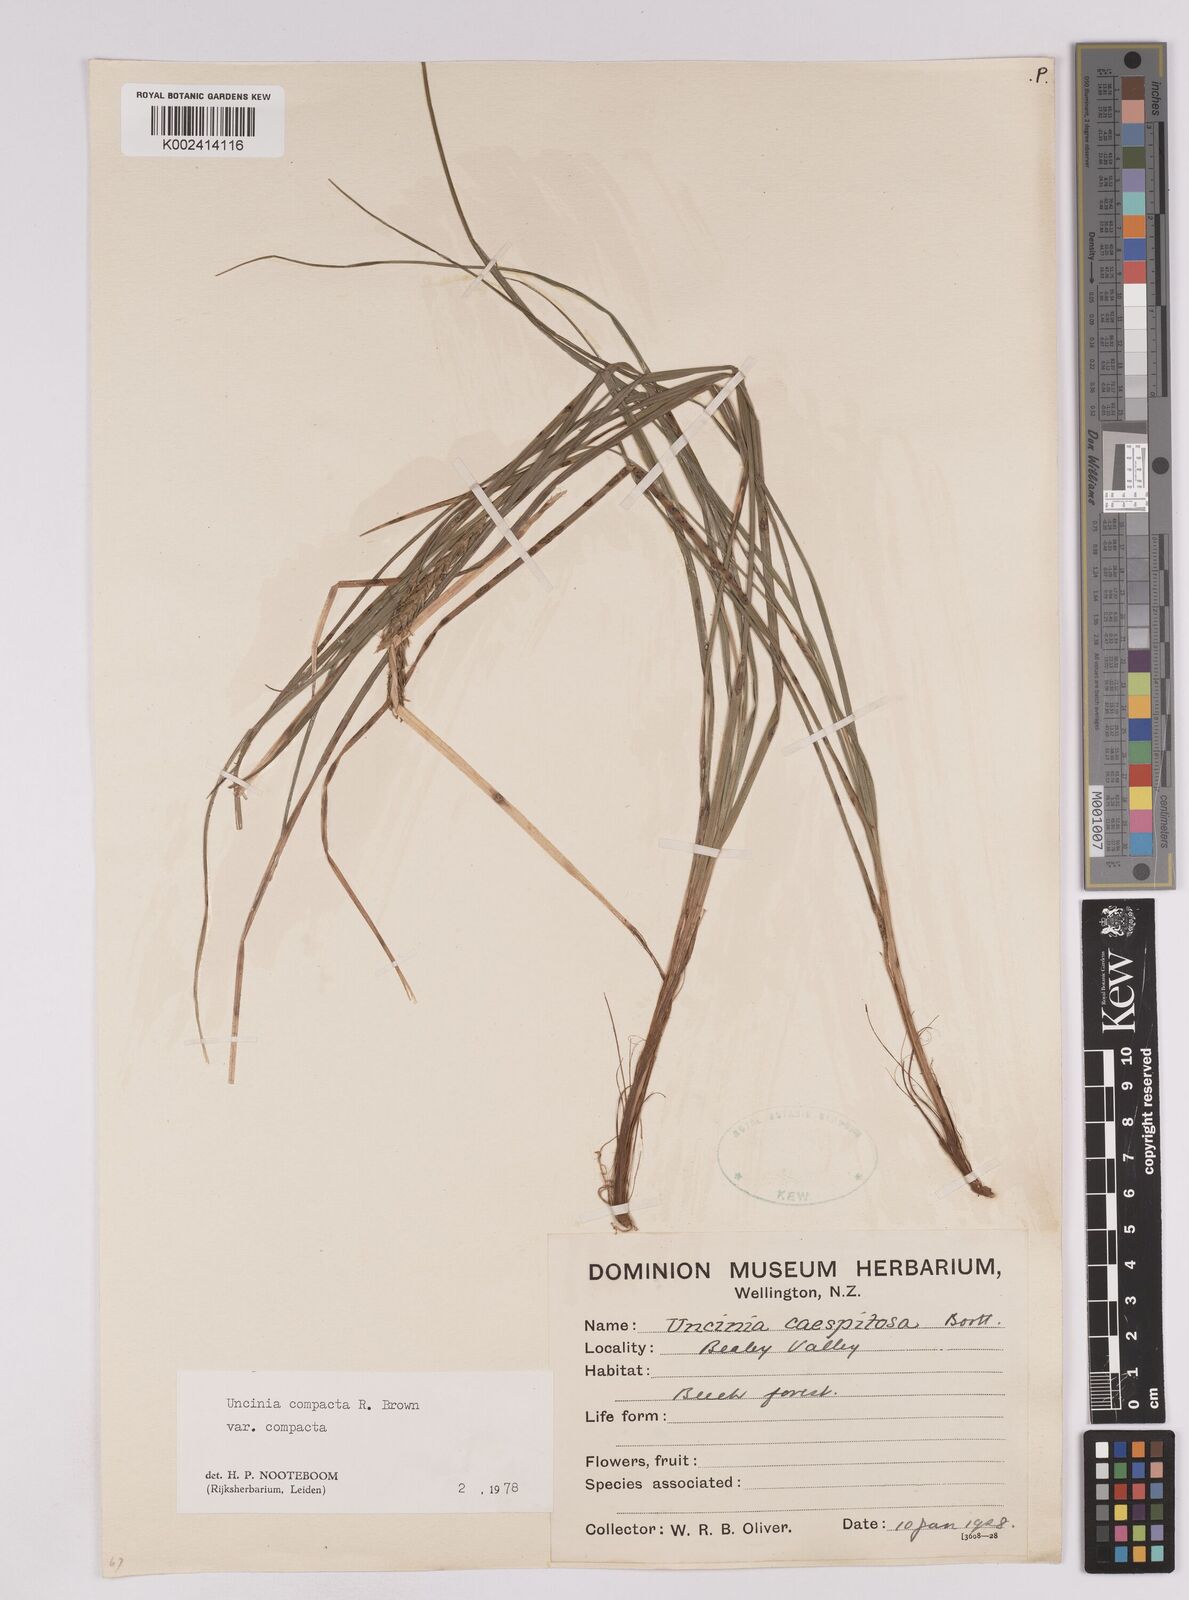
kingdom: Plantae
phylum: Tracheophyta
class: Liliopsida
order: Poales
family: Cyperaceae
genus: Carex
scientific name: Carex austrocompacta
